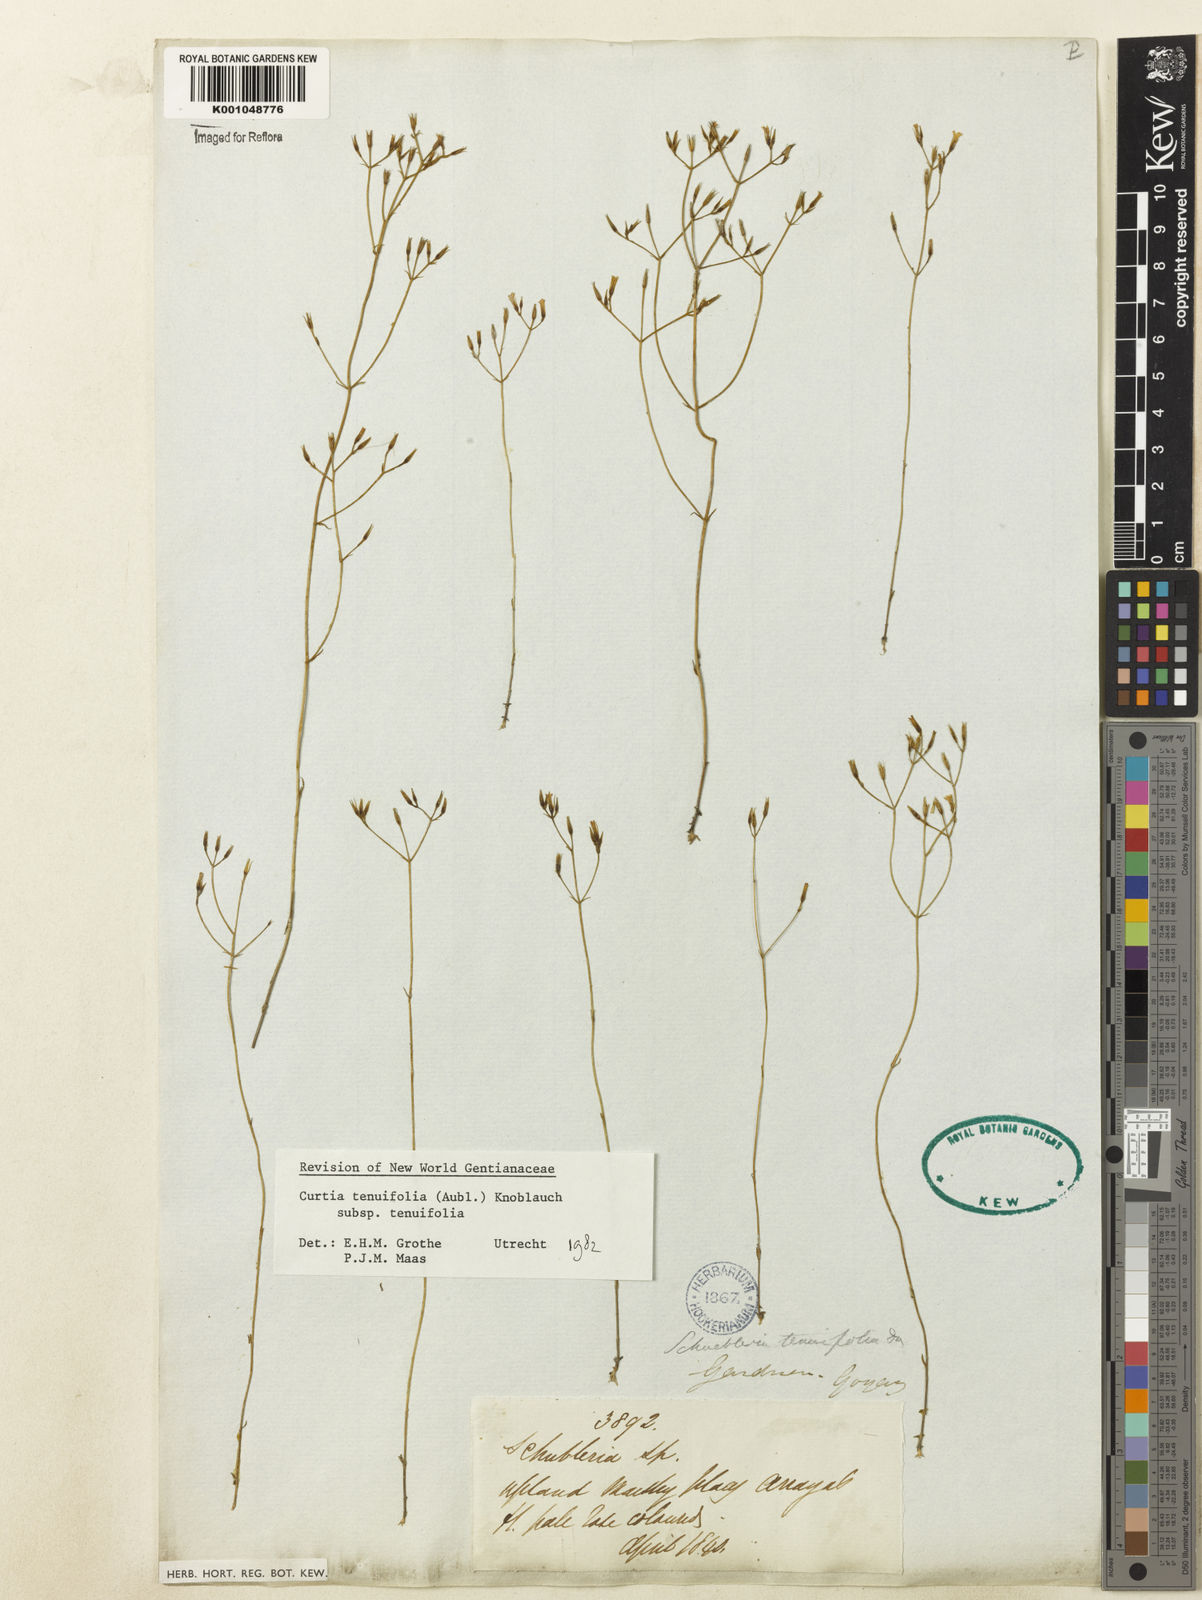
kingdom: Plantae
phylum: Tracheophyta
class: Magnoliopsida
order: Gentianales
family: Gentianaceae
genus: Curtia
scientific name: Curtia tenuifolia
